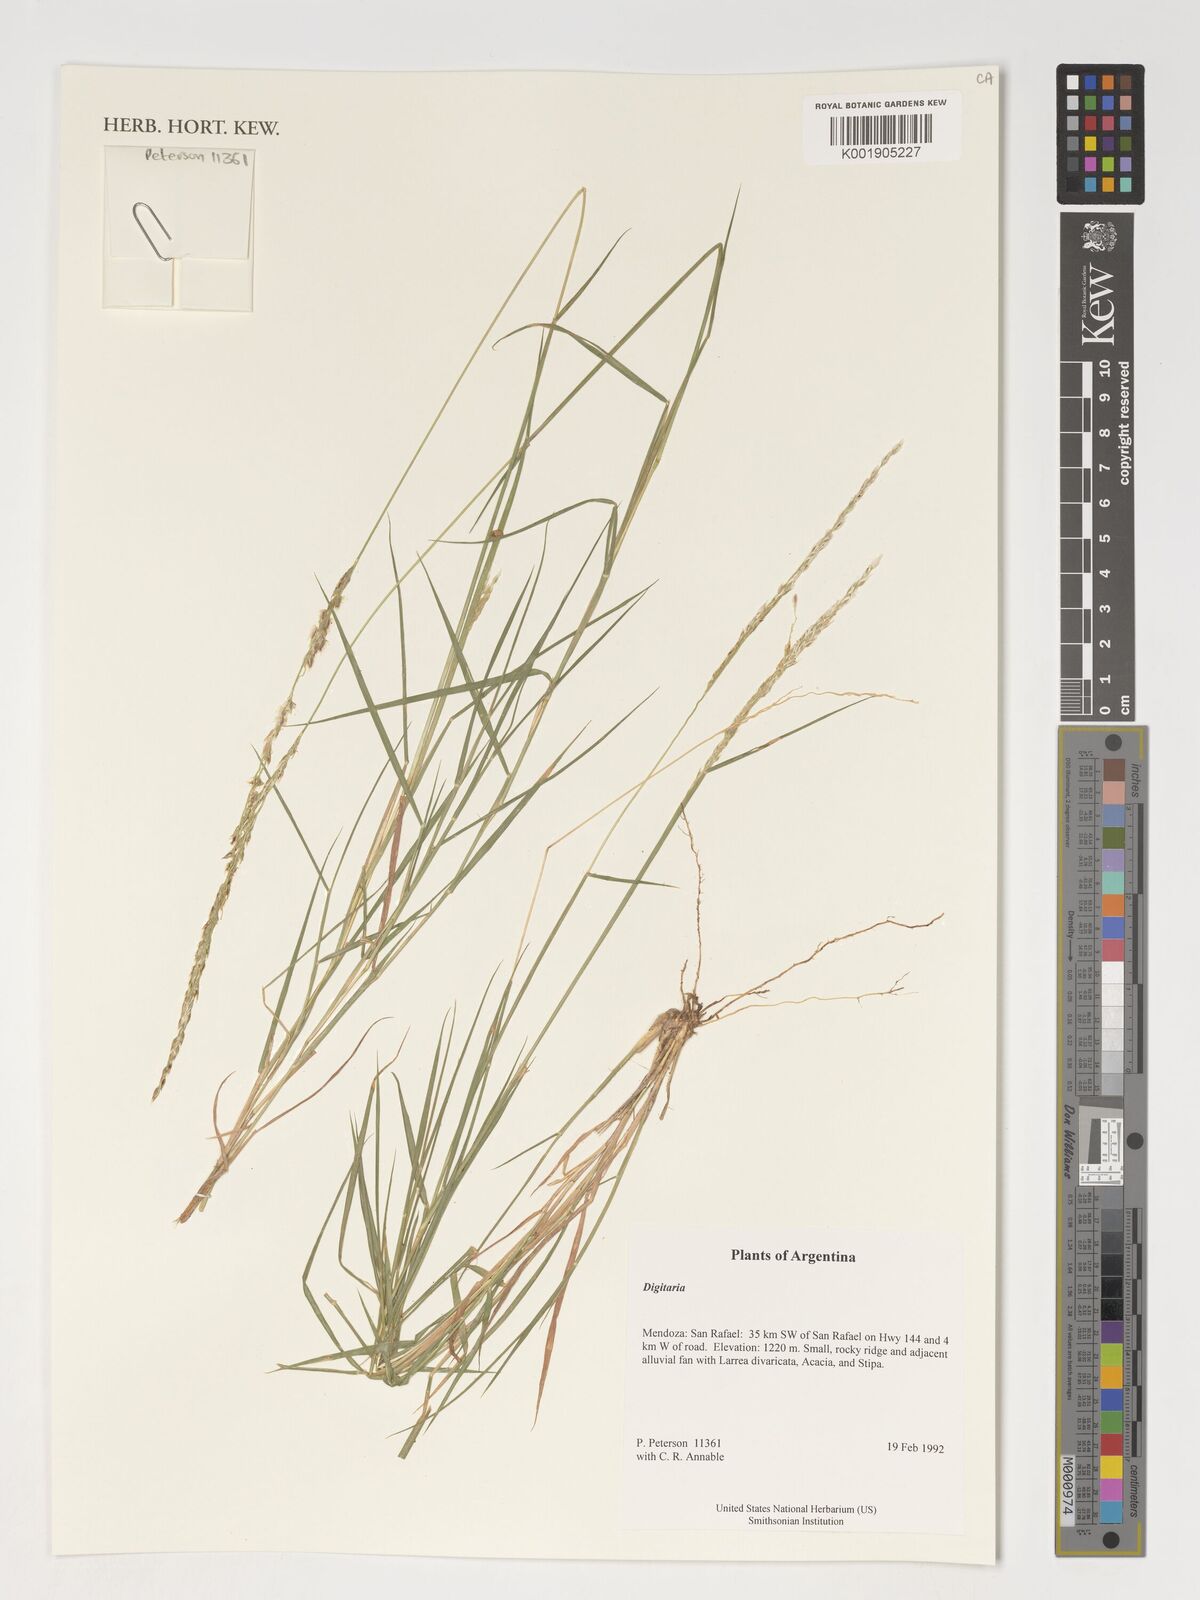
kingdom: Plantae
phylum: Tracheophyta
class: Liliopsida
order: Poales
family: Poaceae
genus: Digitaria
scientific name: Digitaria spec
